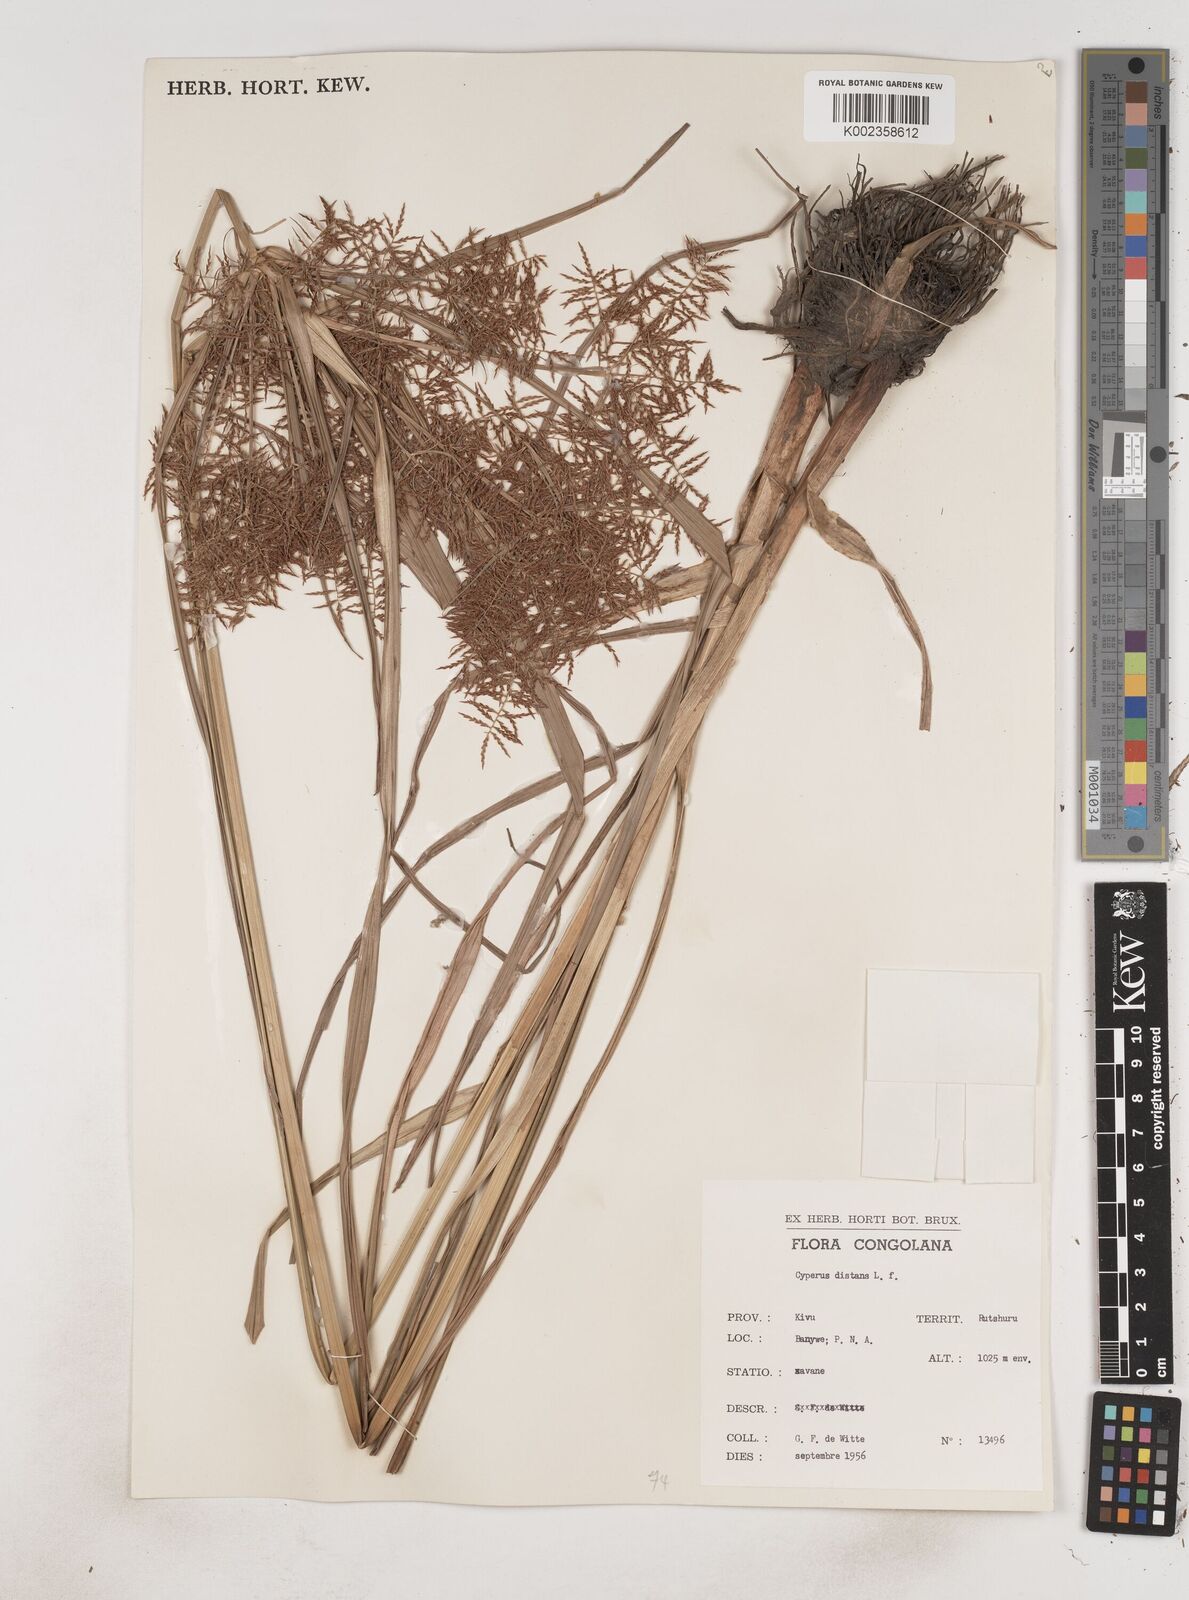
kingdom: Plantae
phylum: Tracheophyta
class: Liliopsida
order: Poales
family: Cyperaceae
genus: Cyperus
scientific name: Cyperus distans
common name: Slender cyperus
